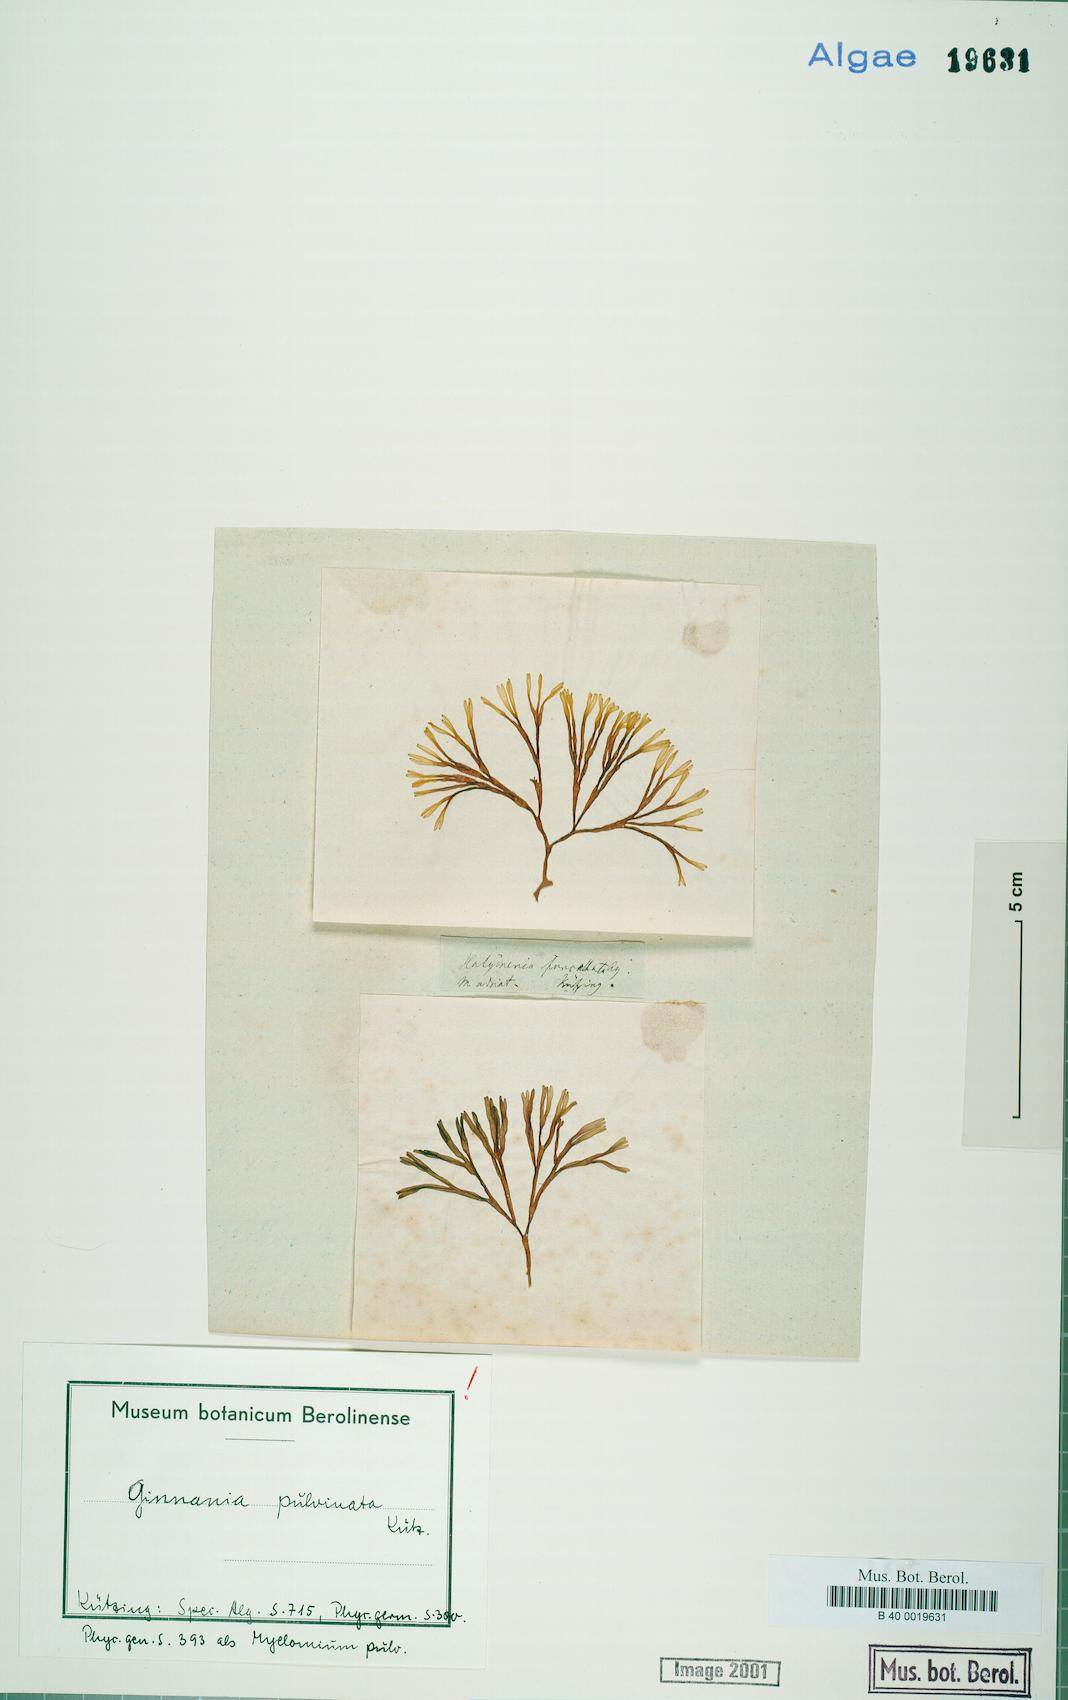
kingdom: Plantae
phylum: Rhodophyta
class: Florideophyceae
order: Nemaliales
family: Scinaiaceae
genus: Scinaia
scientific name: Scinaia
